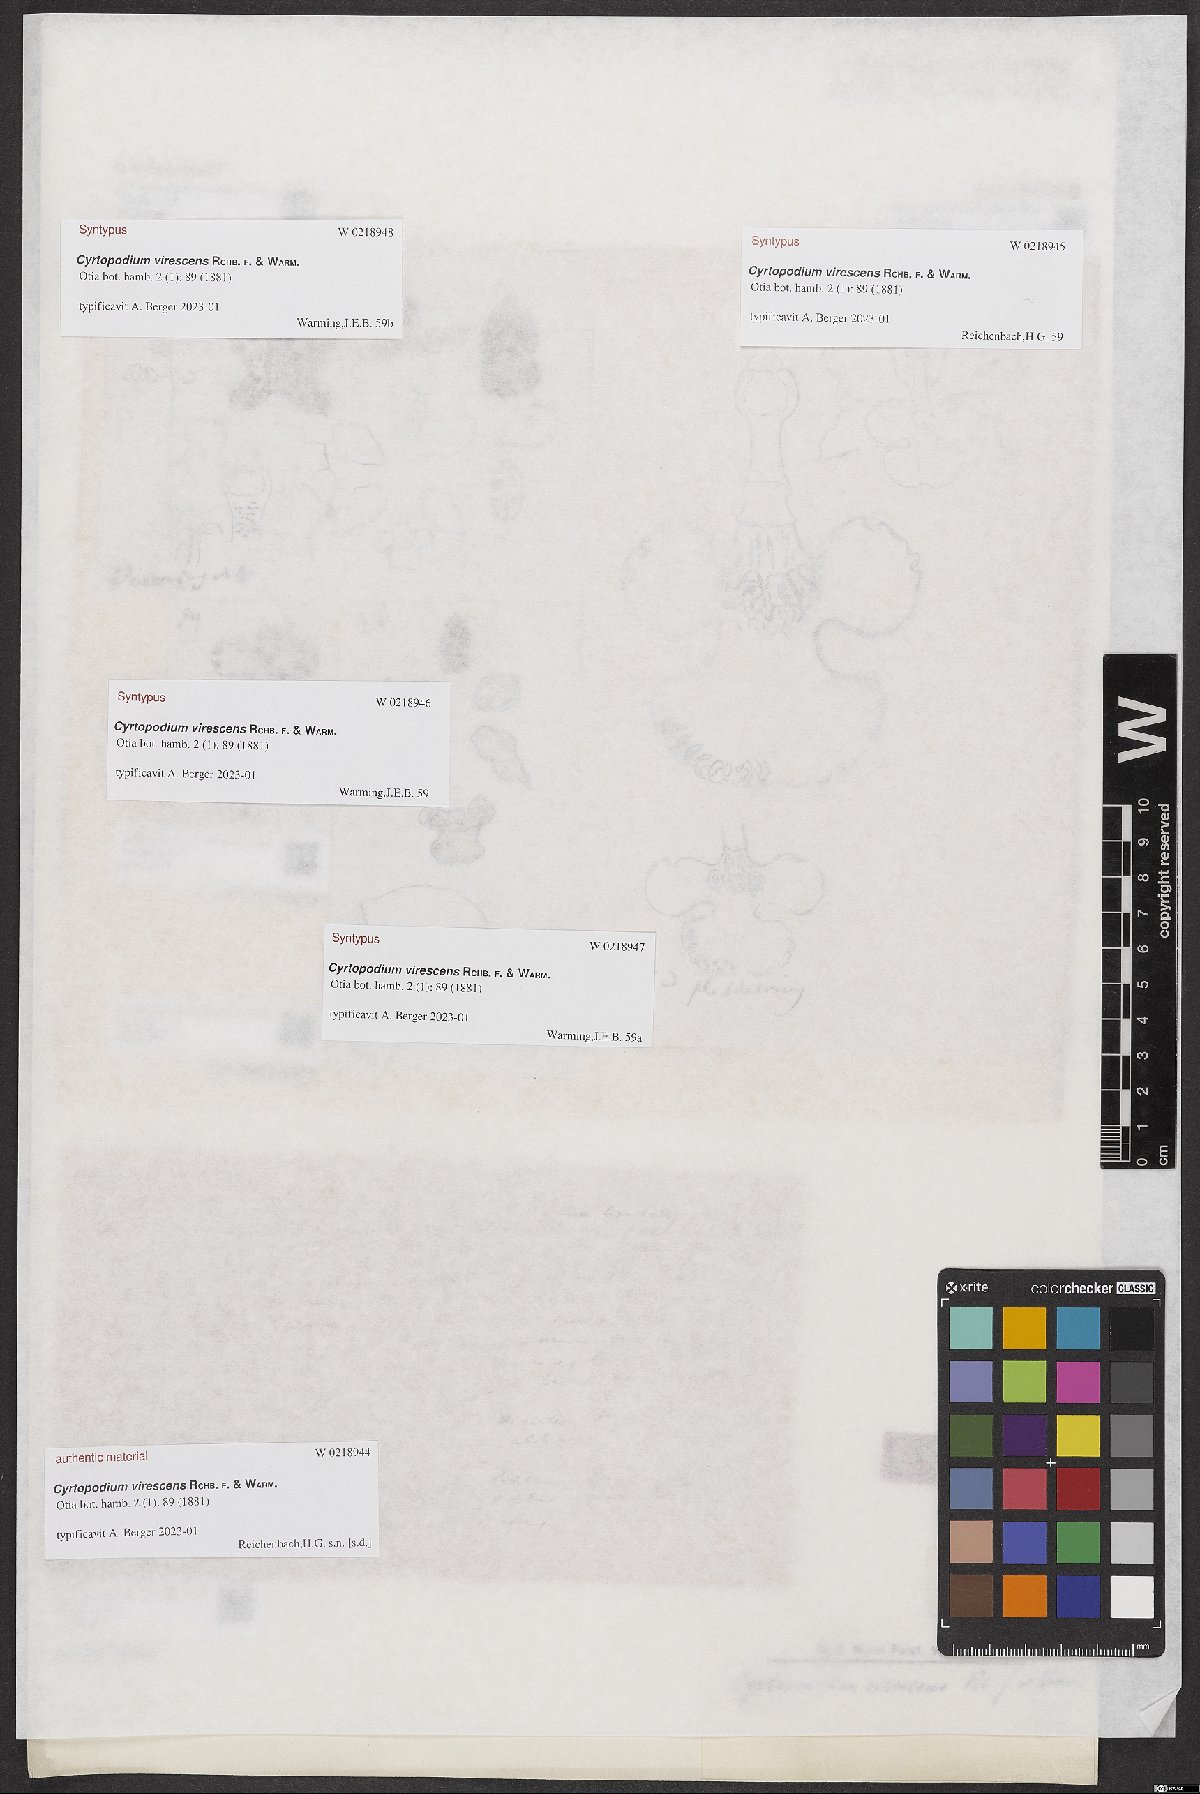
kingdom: Plantae
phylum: Tracheophyta
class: Liliopsida
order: Asparagales
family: Orchidaceae
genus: Cyrtopodium
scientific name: Cyrtopodium virescens
